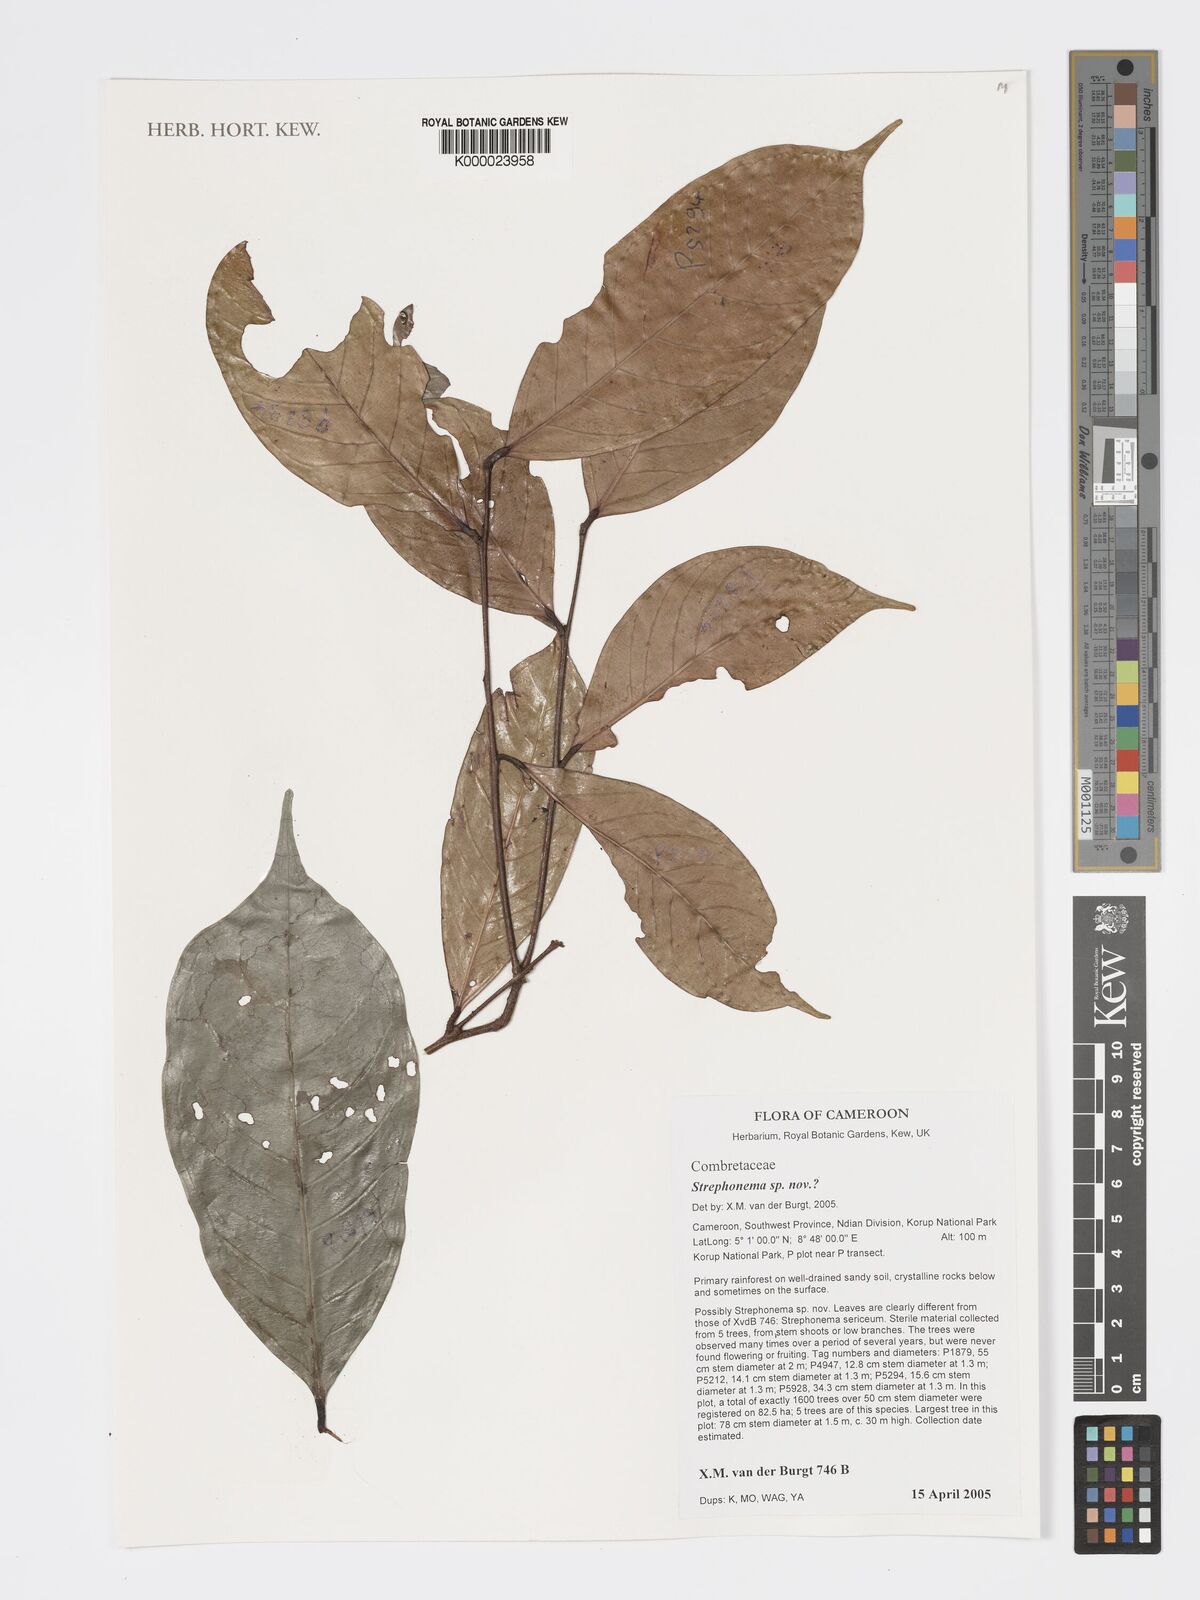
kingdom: Plantae
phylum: Tracheophyta
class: Magnoliopsida
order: Myrtales
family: Combretaceae
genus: Strephonema
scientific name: Strephonema
